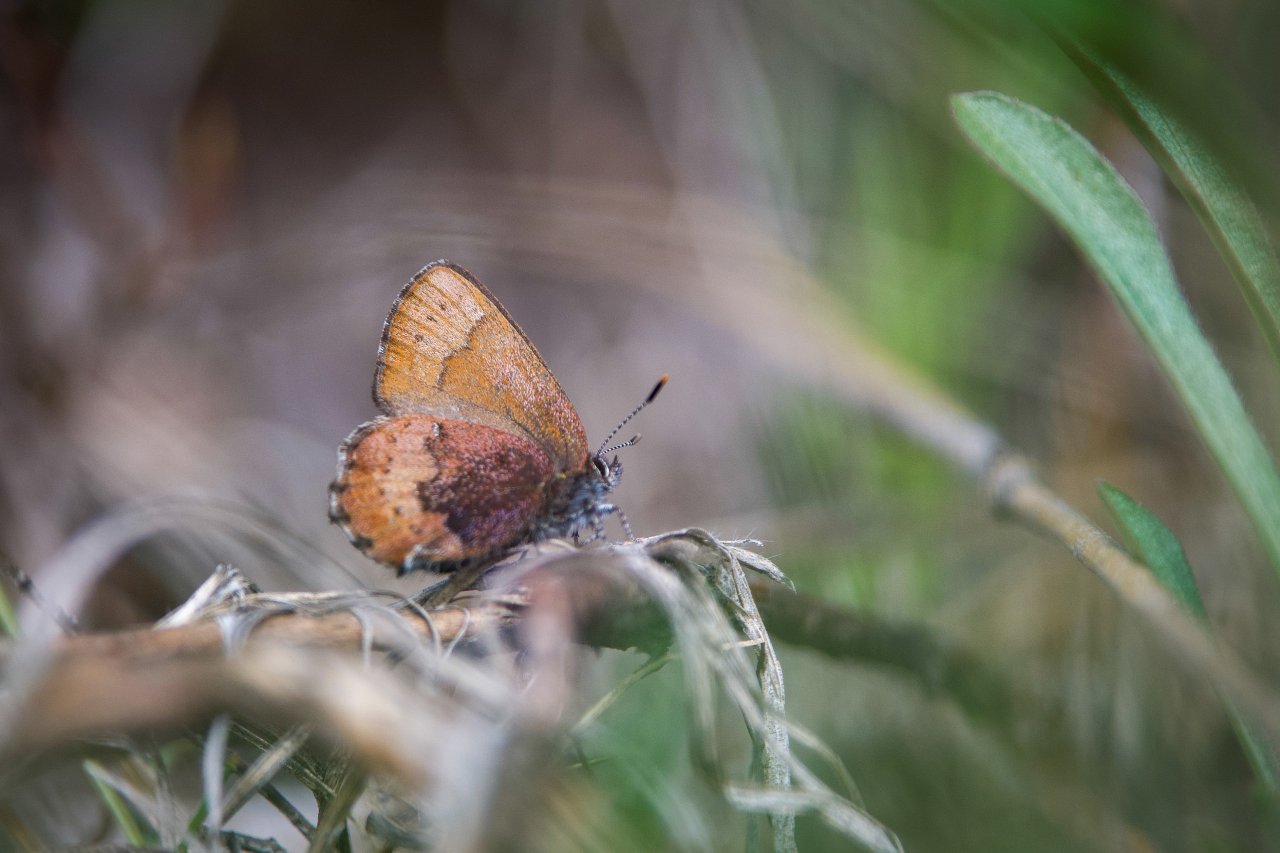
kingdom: Animalia
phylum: Arthropoda
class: Insecta
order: Lepidoptera
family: Lycaenidae
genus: Incisalia
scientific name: Incisalia irioides
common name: Brown Elfin
